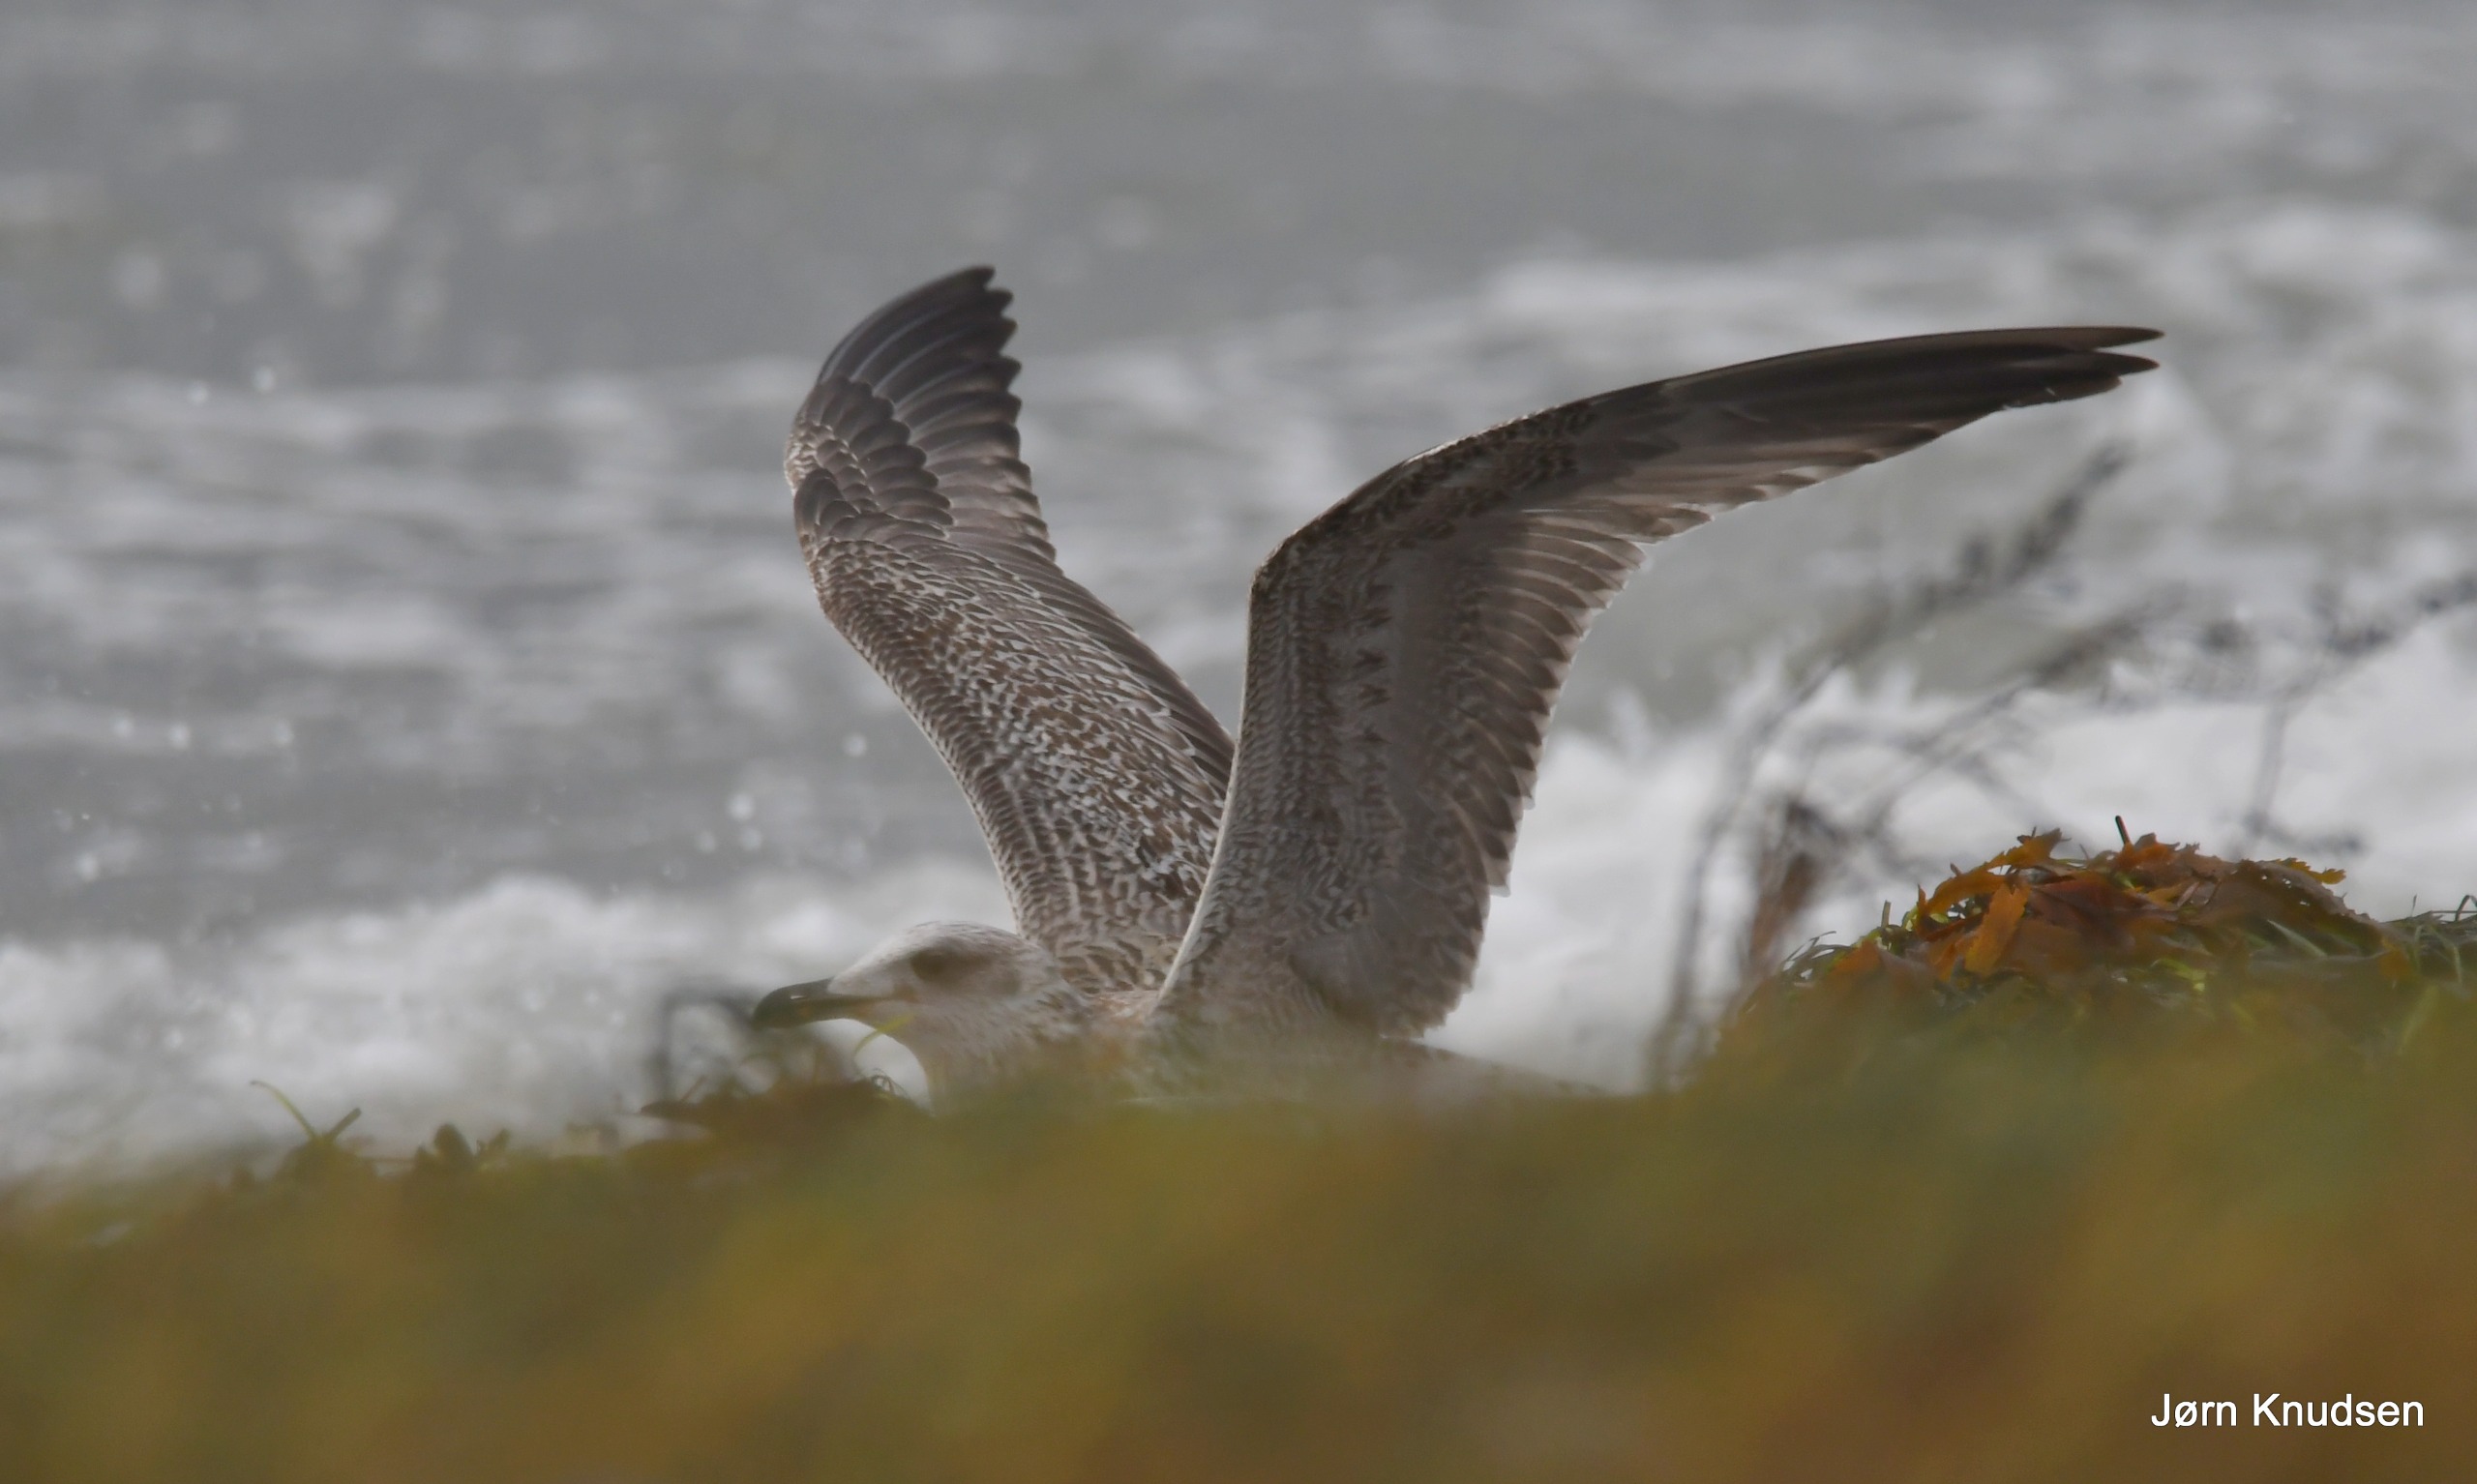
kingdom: Animalia
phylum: Chordata
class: Aves
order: Charadriiformes
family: Laridae
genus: Larus
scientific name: Larus argentatus
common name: Sølvmåge
